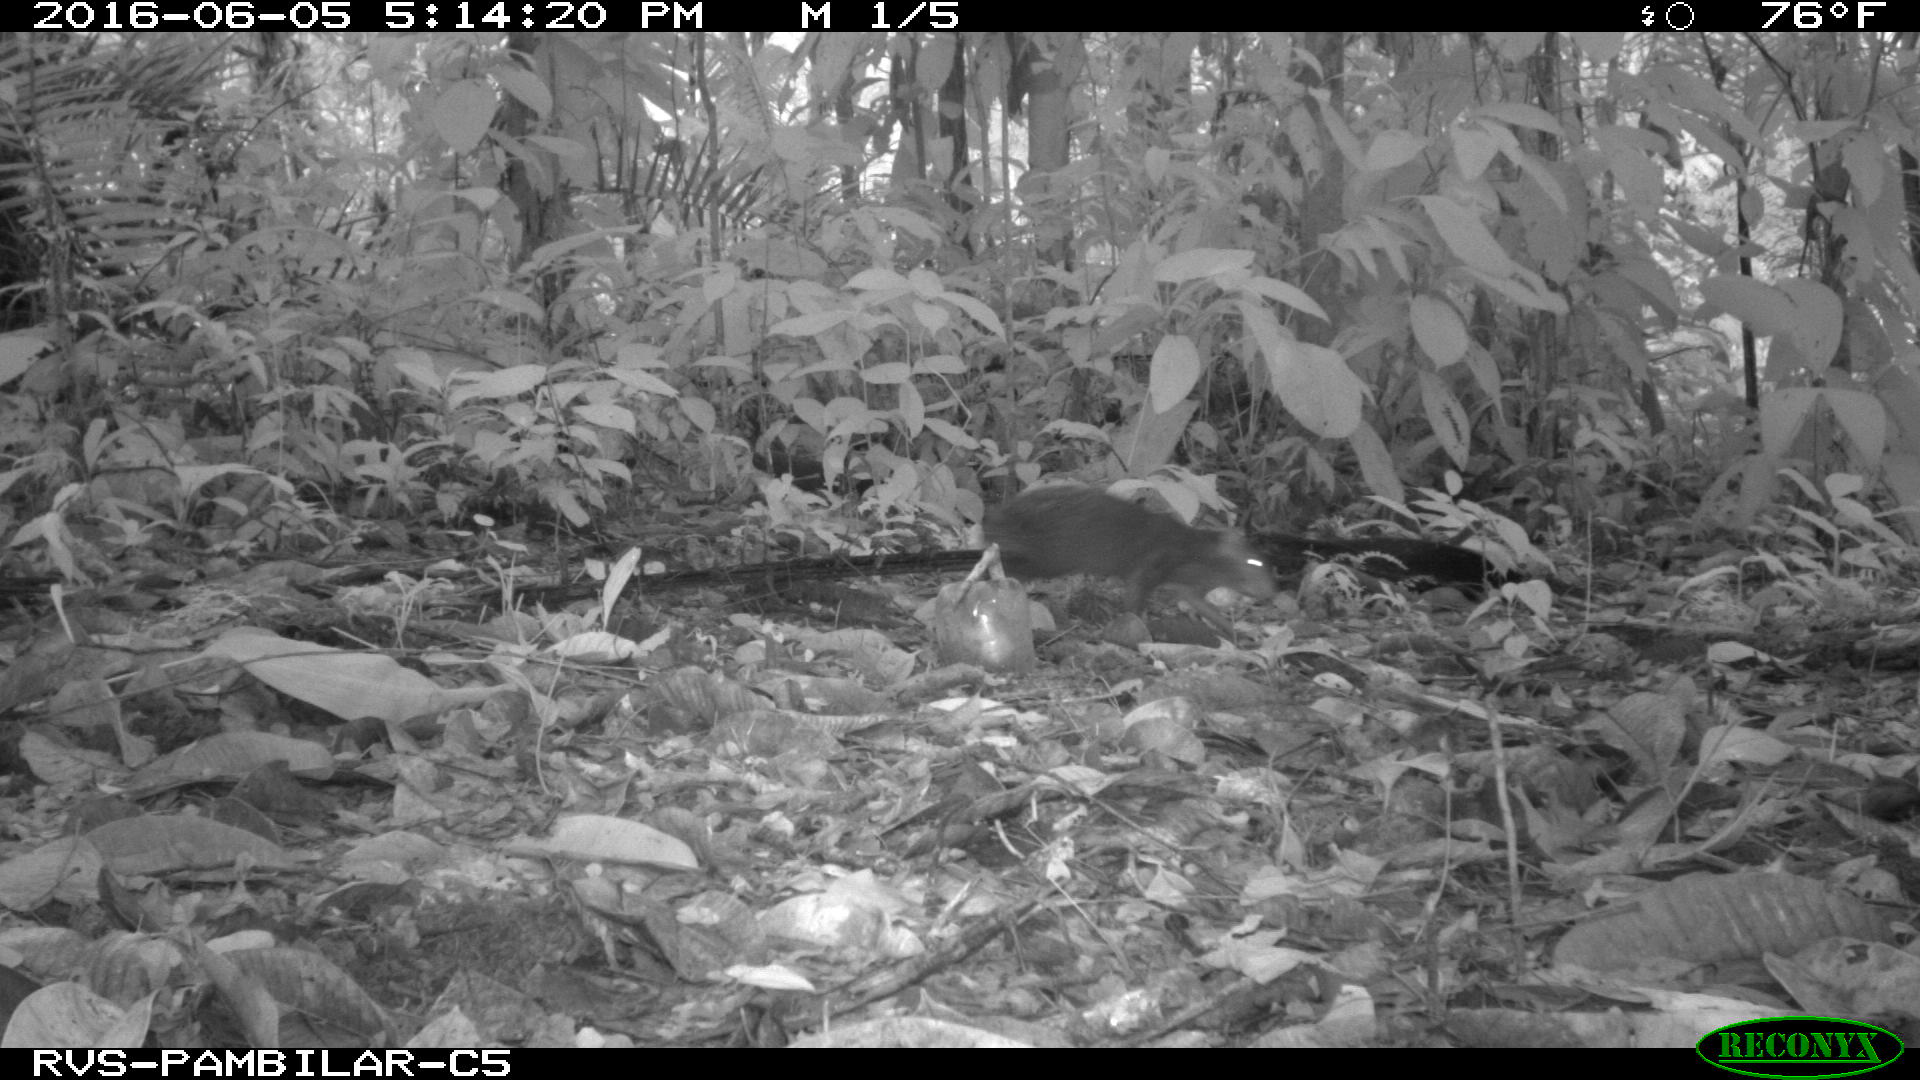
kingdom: Animalia
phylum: Chordata
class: Mammalia
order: Rodentia
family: Dasyproctidae
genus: Dasyprocta
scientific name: Dasyprocta punctata
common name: Central american agouti
